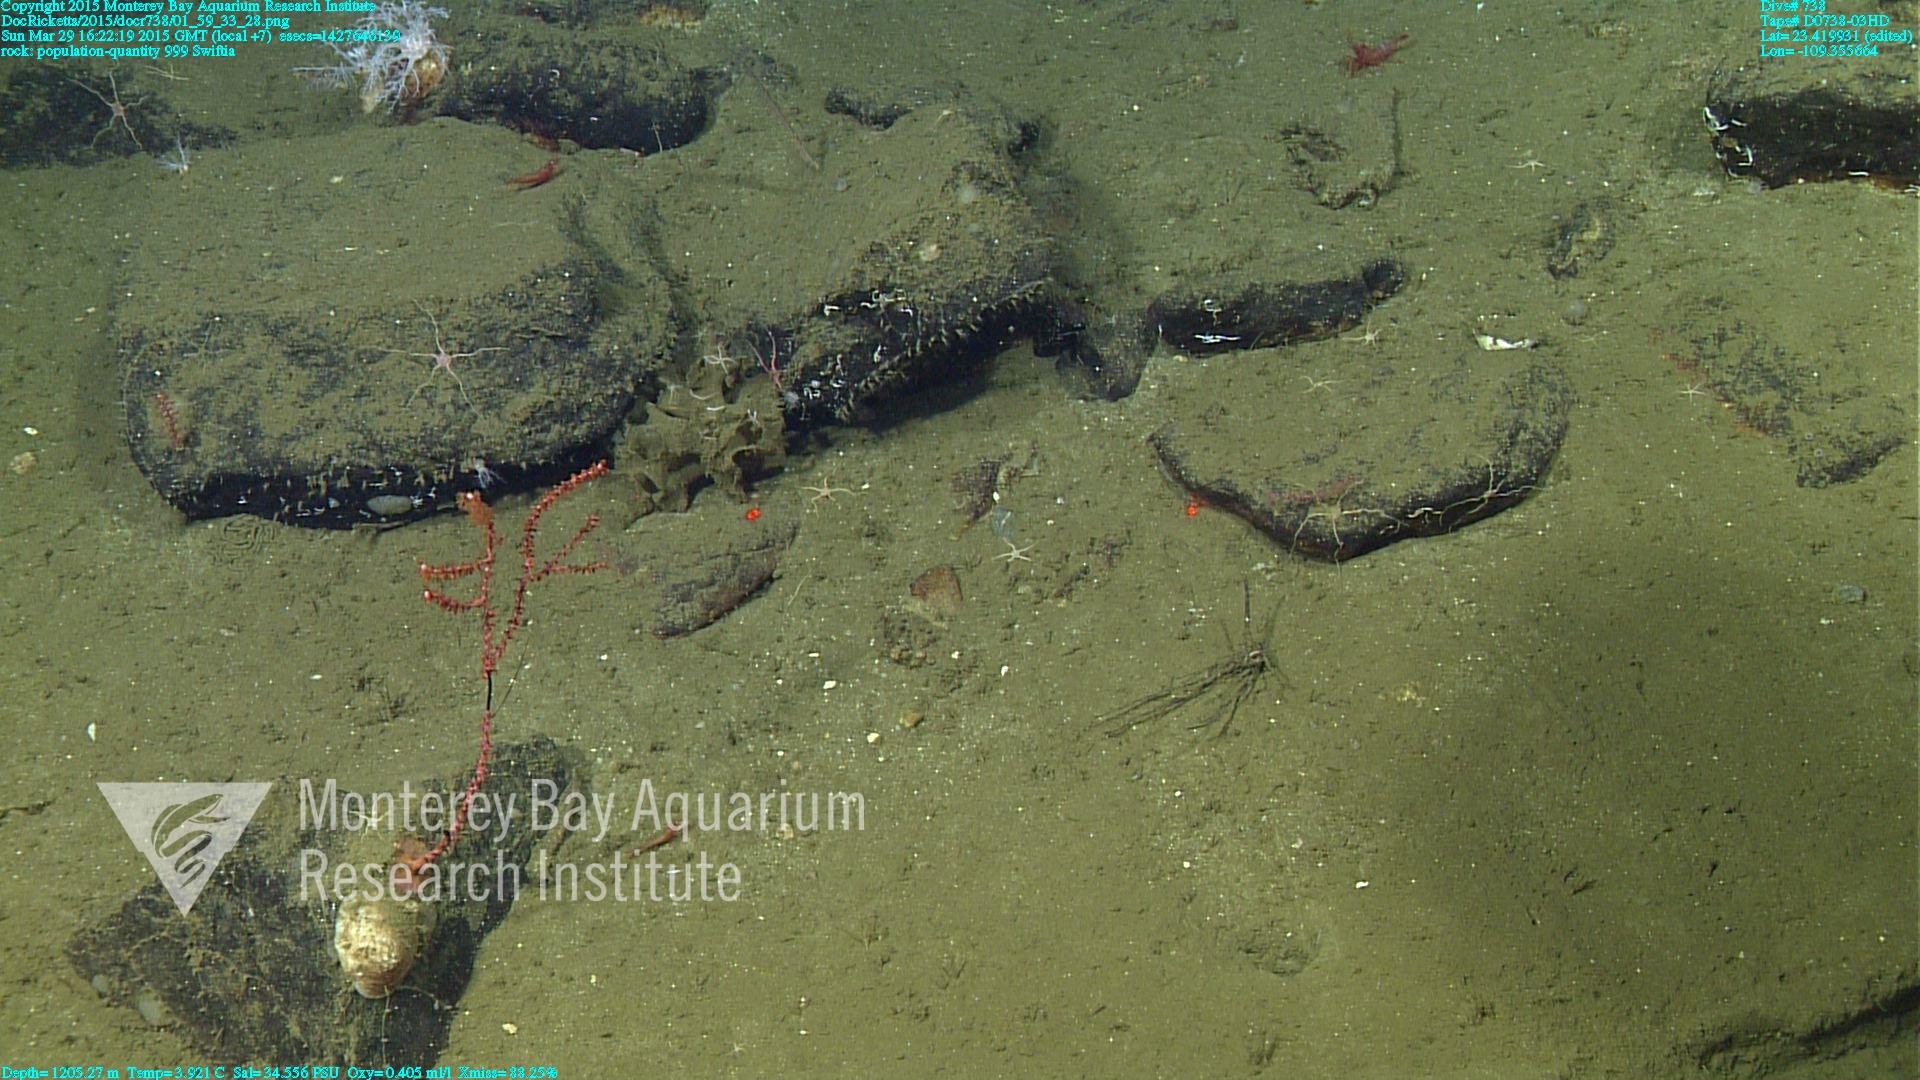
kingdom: Animalia
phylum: Cnidaria
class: Anthozoa
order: Malacalcyonacea
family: Plexauridae
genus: Swiftia
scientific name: Swiftia
